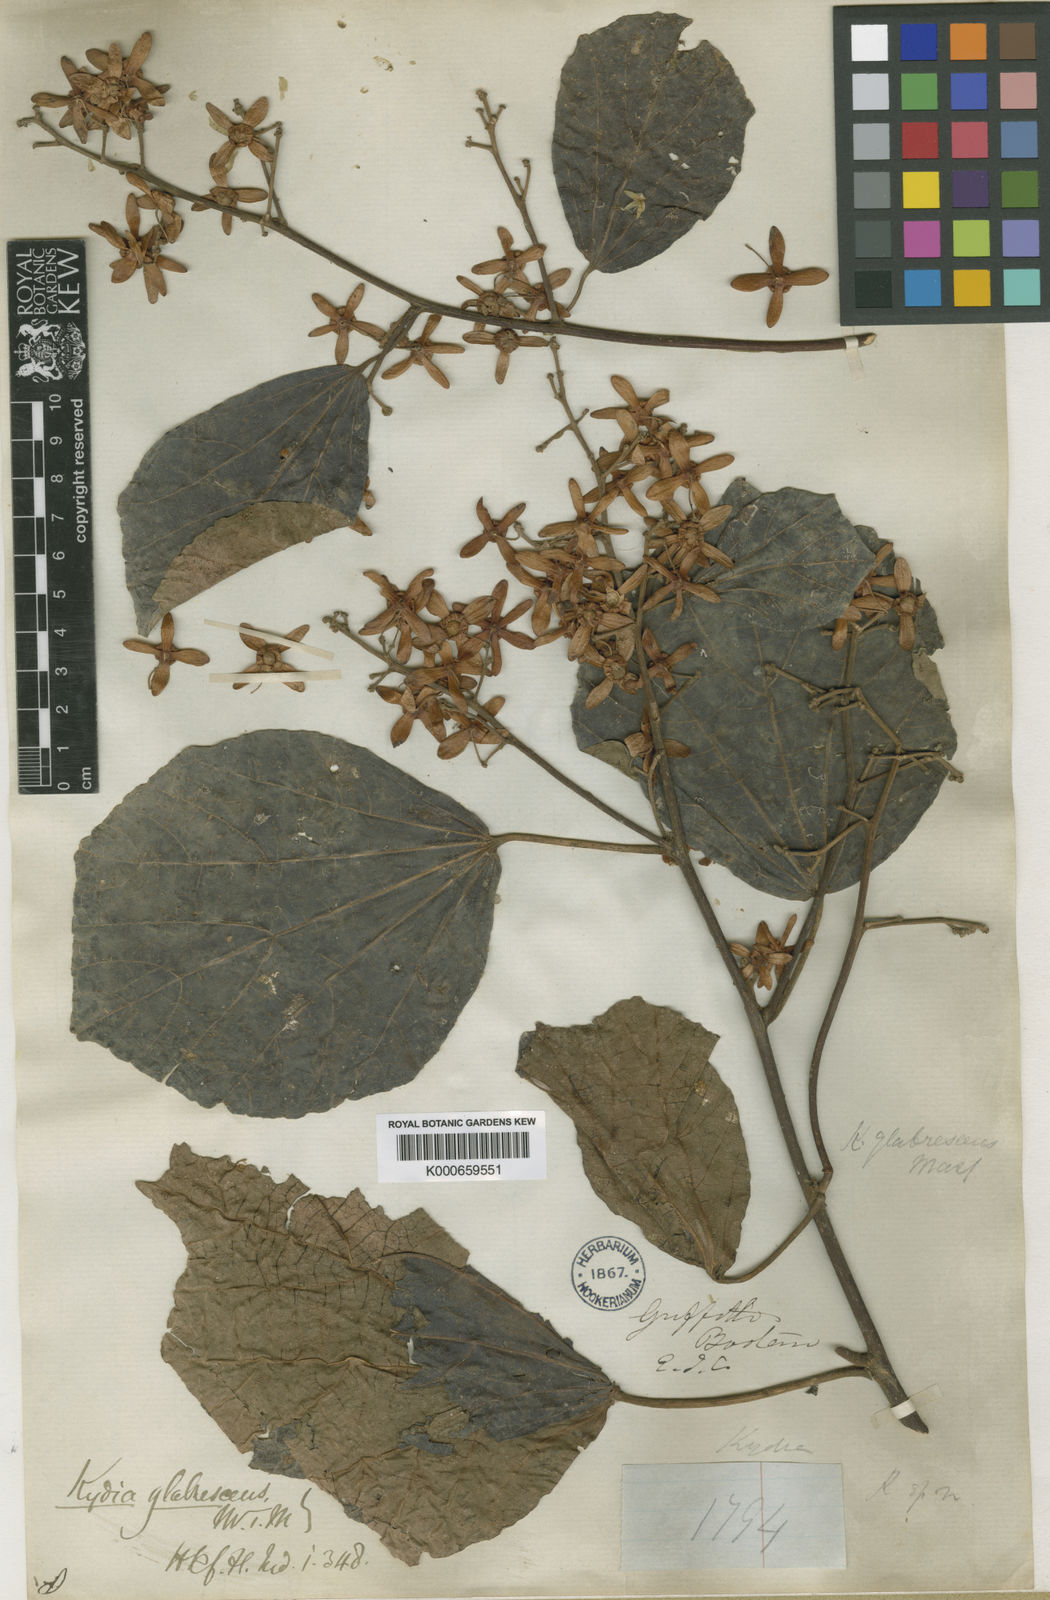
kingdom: Plantae
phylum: Tracheophyta
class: Magnoliopsida
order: Malvales
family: Malvaceae
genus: Kydia
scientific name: Kydia glabrescens
